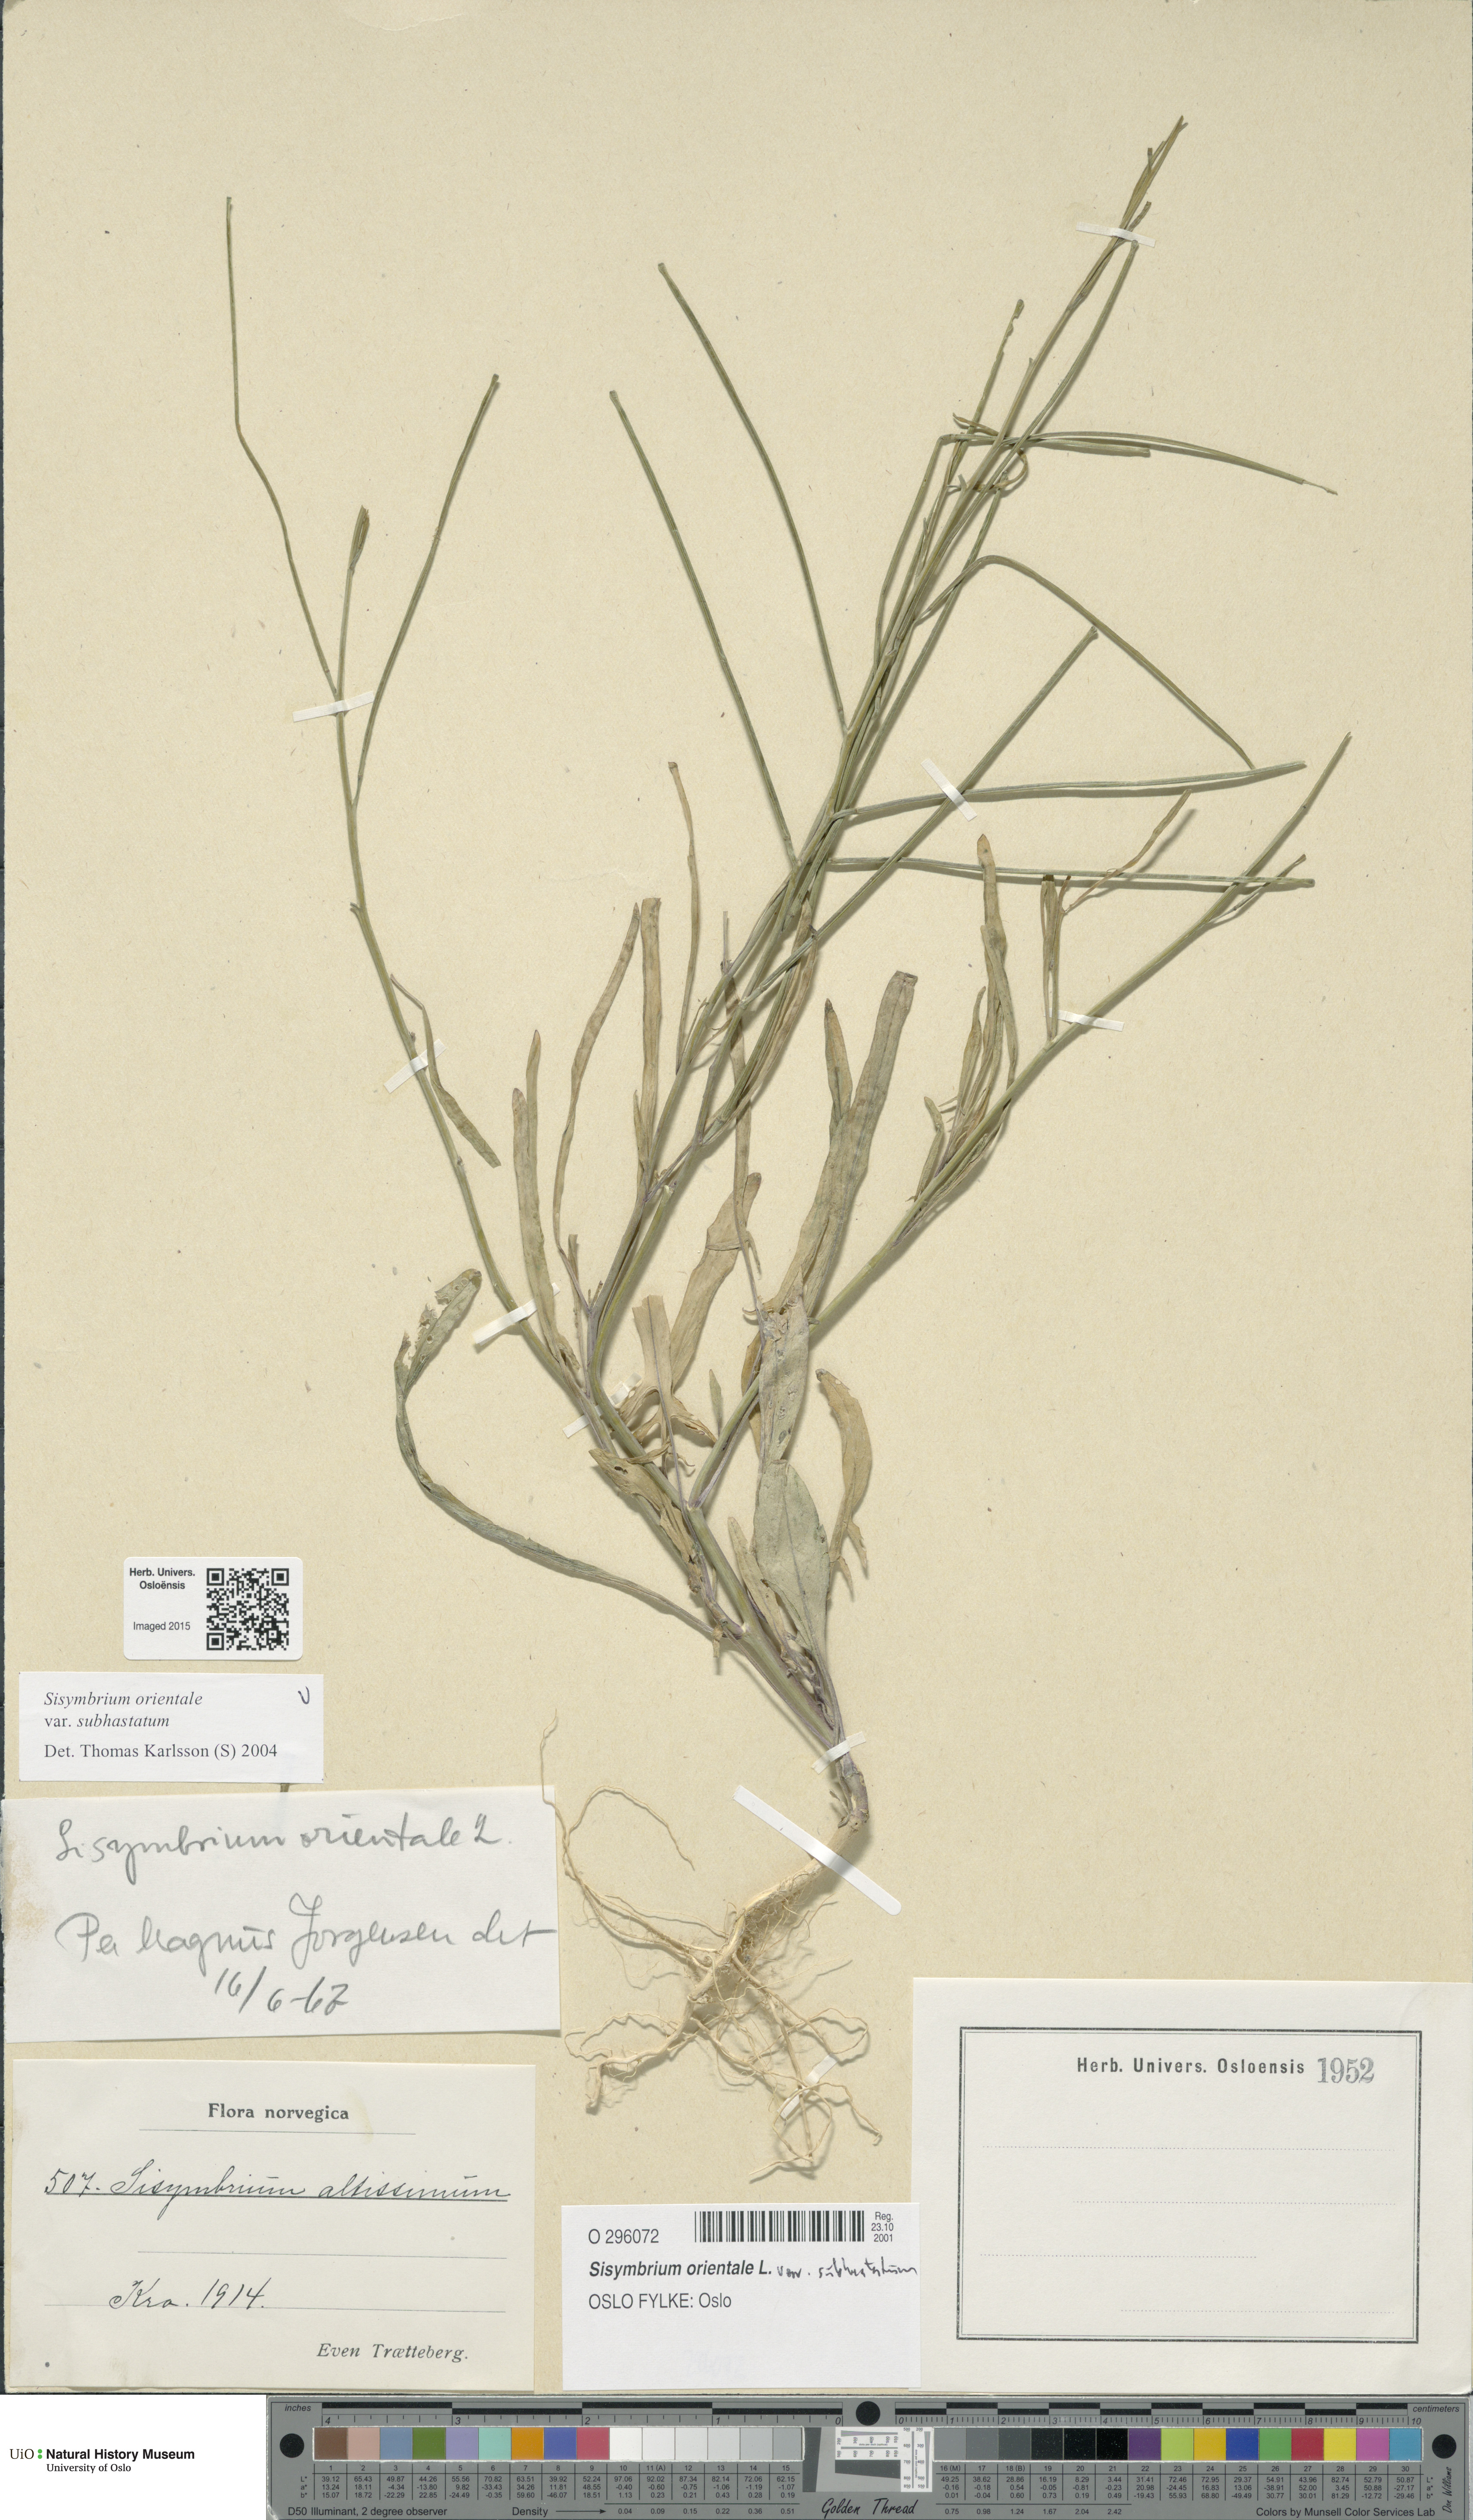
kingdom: Plantae
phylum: Tracheophyta
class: Magnoliopsida
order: Brassicales
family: Brassicaceae
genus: Sisymbrium
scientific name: Sisymbrium orientale
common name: Eastern rocket
